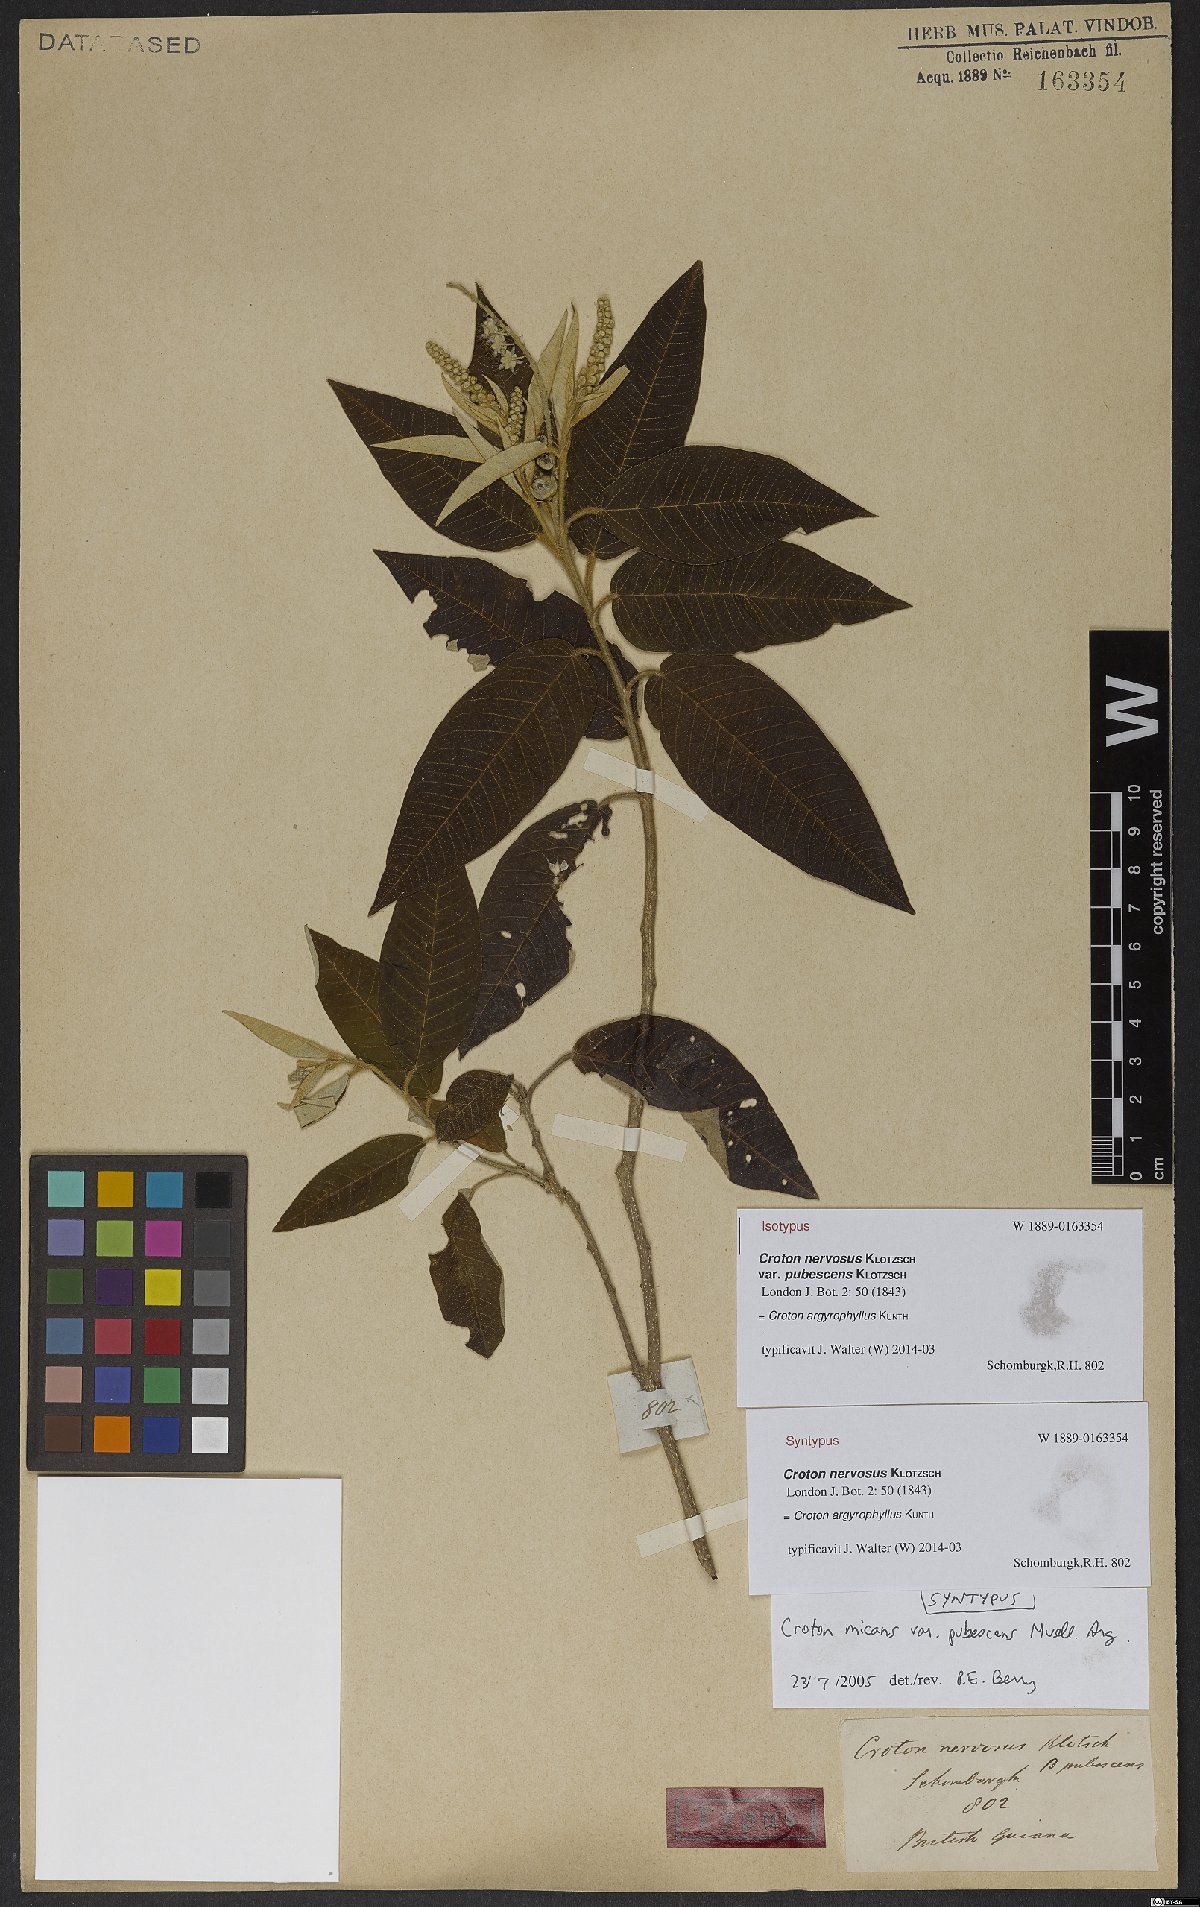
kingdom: Plantae
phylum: Tracheophyta
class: Magnoliopsida
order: Malpighiales
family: Euphorbiaceae
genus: Croton
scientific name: Croton argyrophyllus
